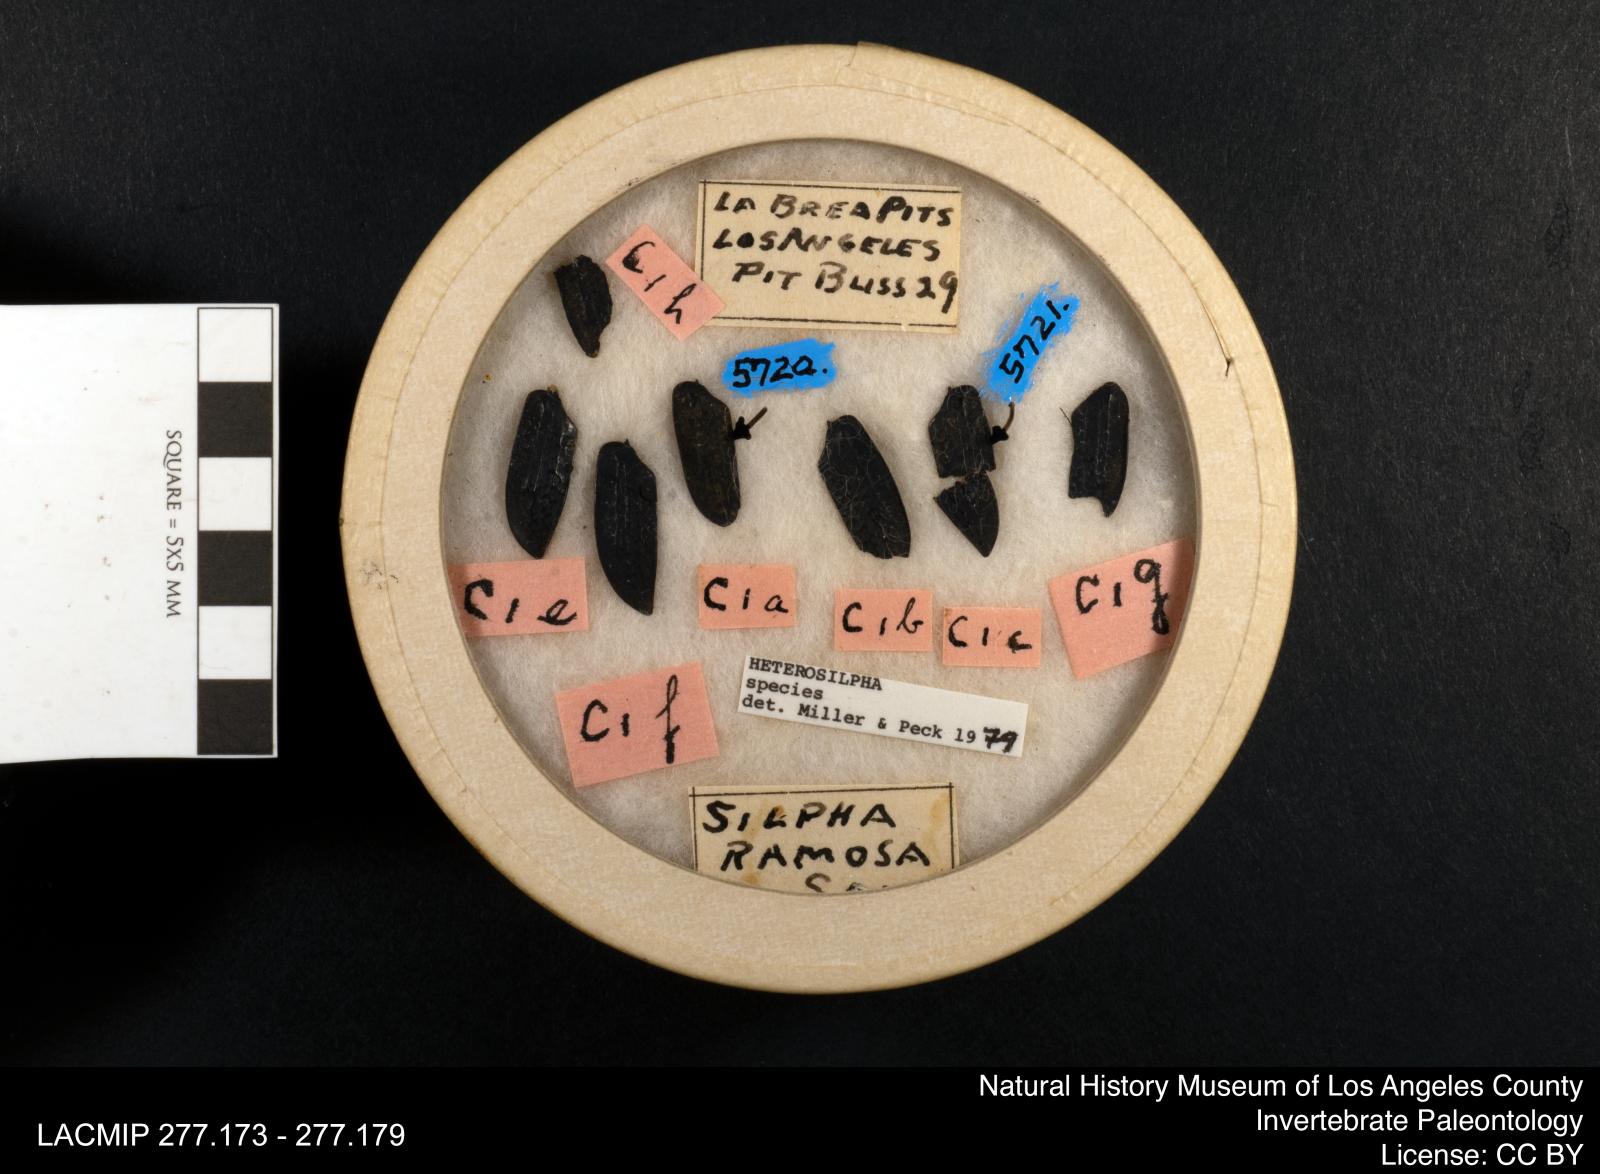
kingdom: Animalia
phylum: Arthropoda
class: Insecta
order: Coleoptera
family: Staphylinidae
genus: Heterosilpha
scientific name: Heterosilpha
